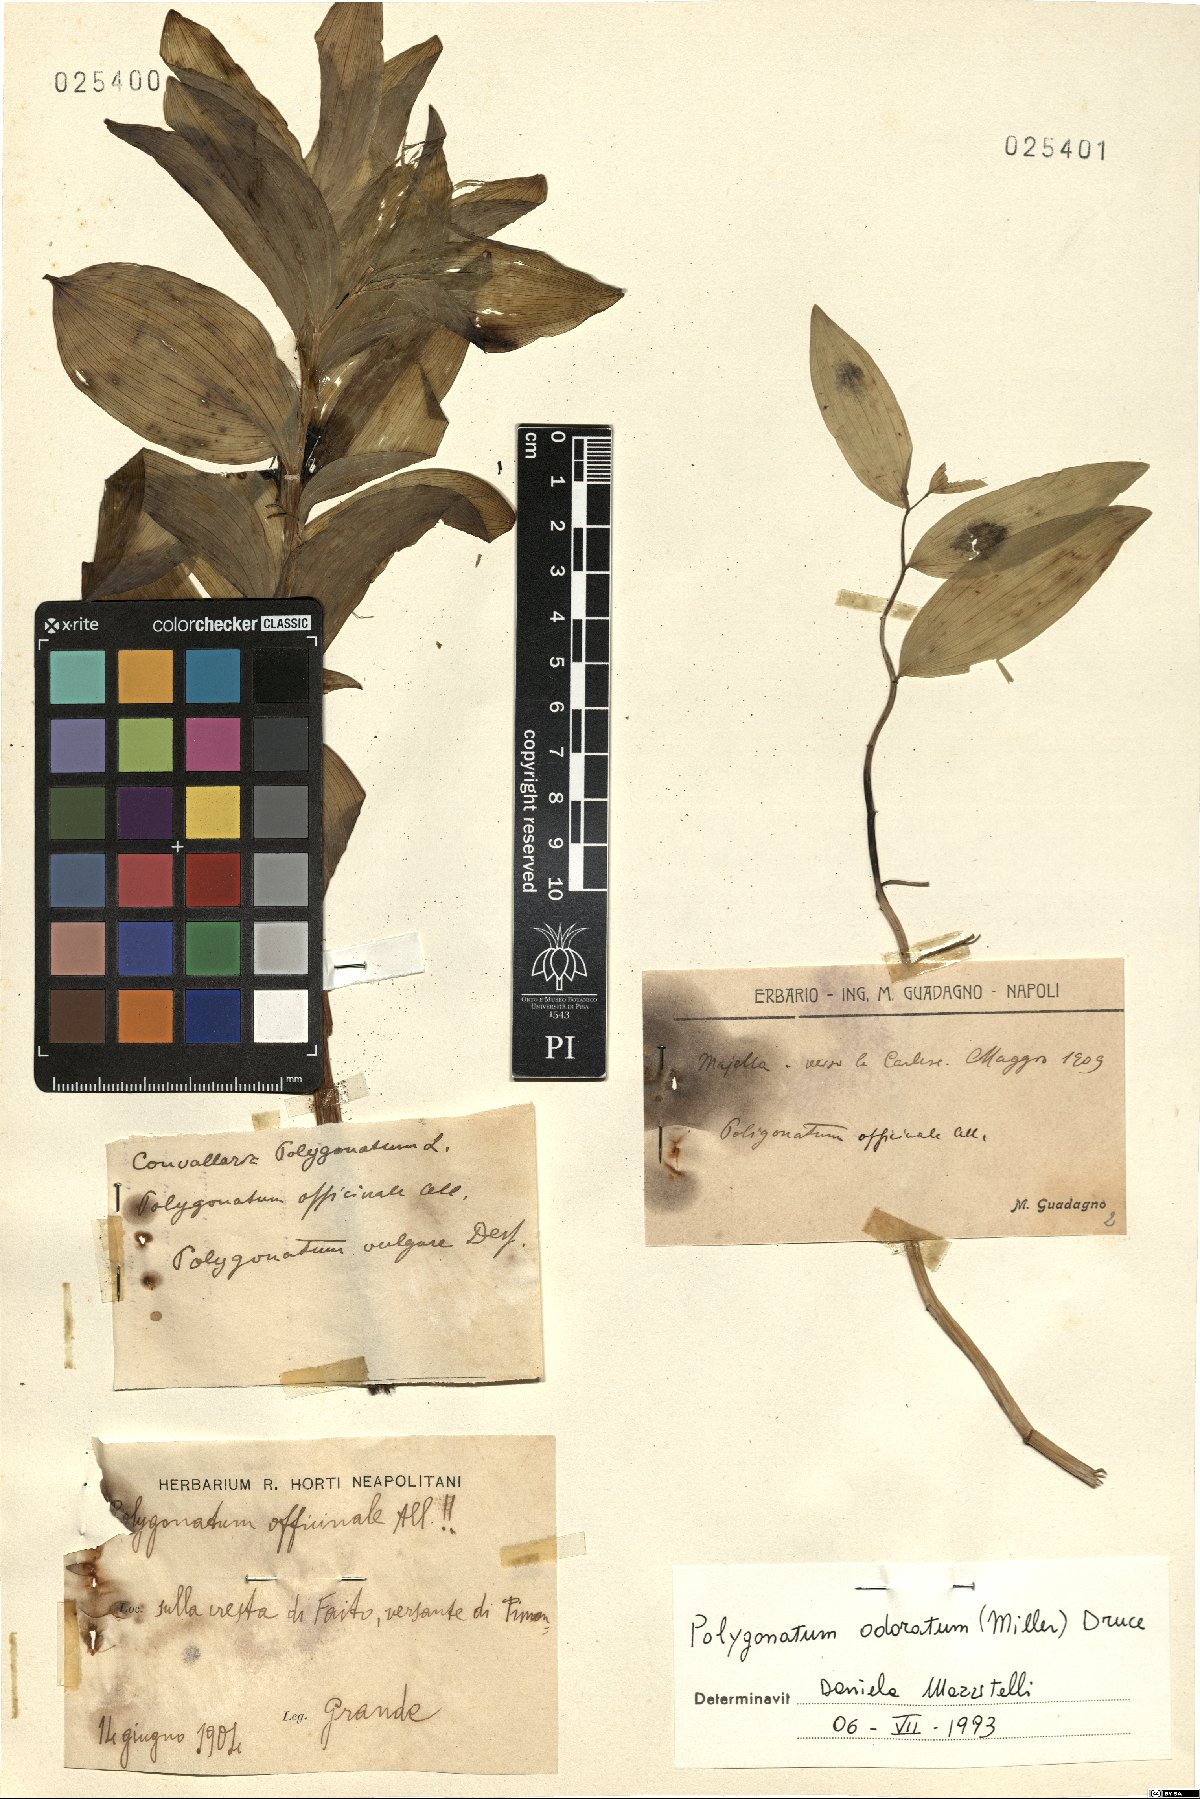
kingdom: Plantae
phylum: Tracheophyta
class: Liliopsida
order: Asparagales
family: Asparagaceae
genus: Polygonatum
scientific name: Polygonatum odoratum
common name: Angular solomon's-seal
